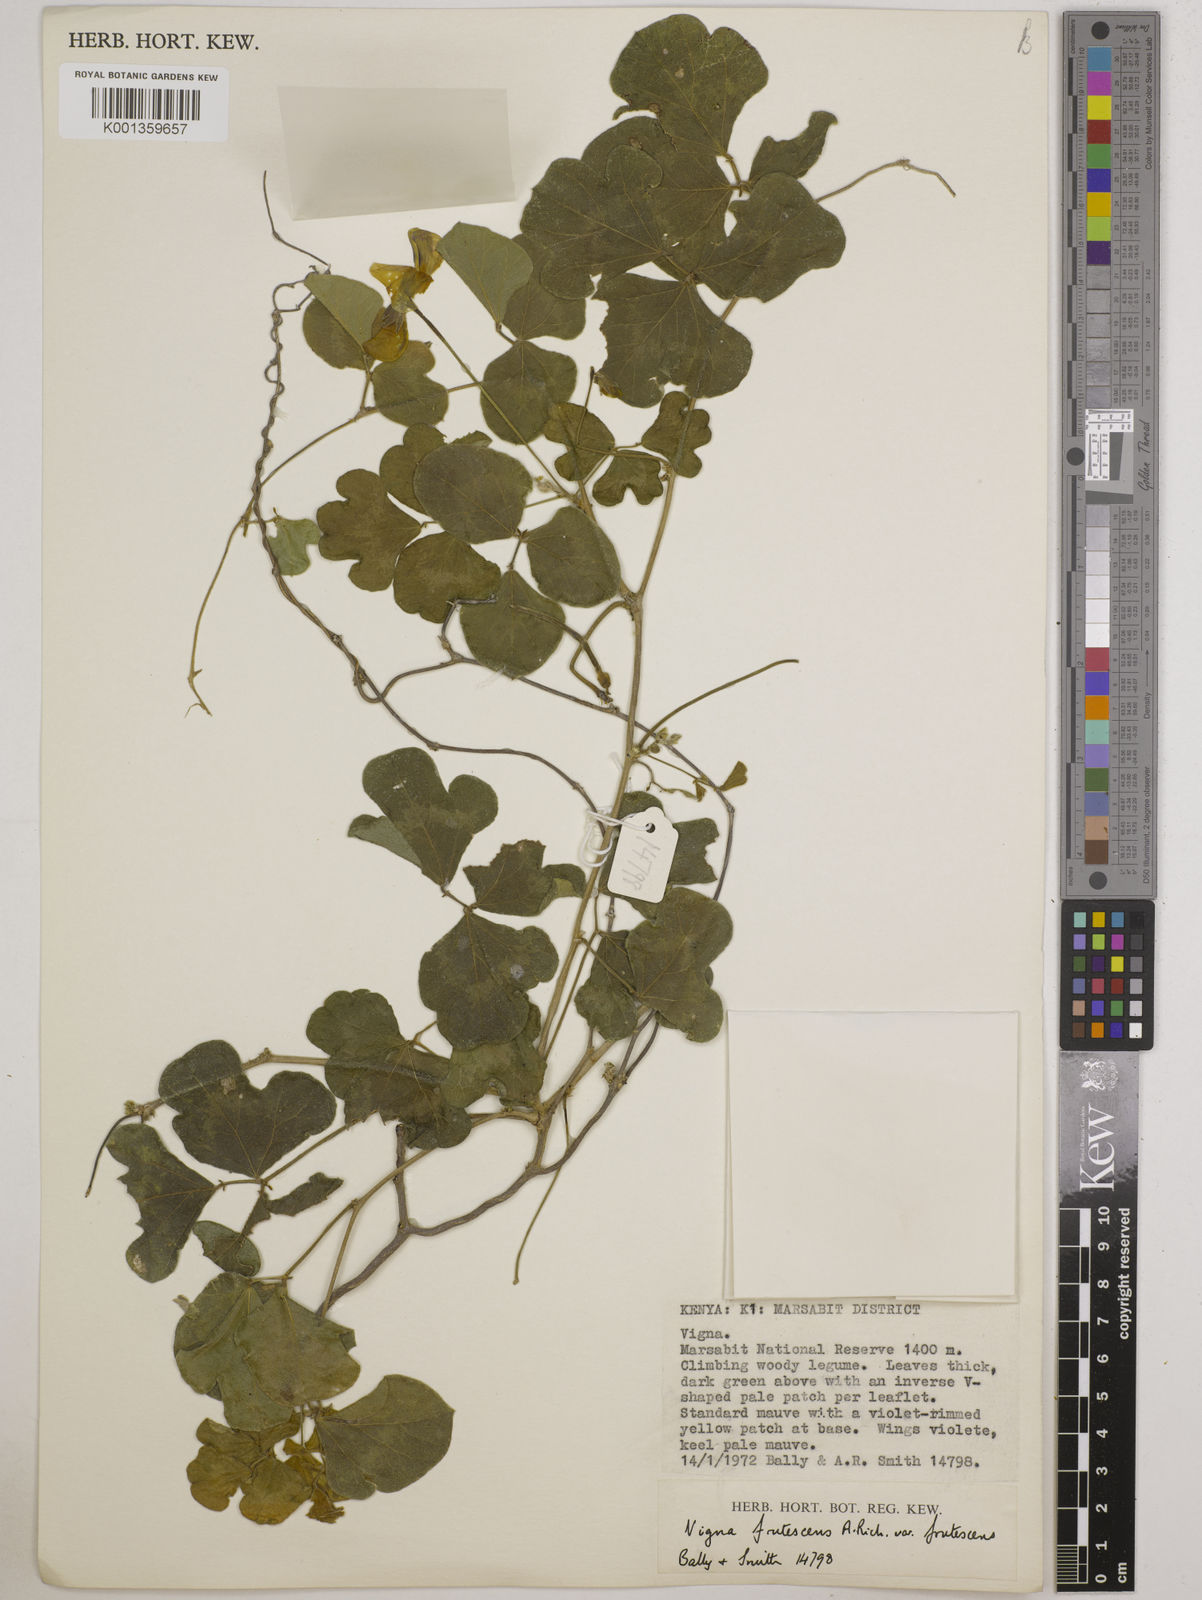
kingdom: Plantae
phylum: Tracheophyta
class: Magnoliopsida
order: Fabales
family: Fabaceae
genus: Vigna
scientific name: Vigna frutescens
